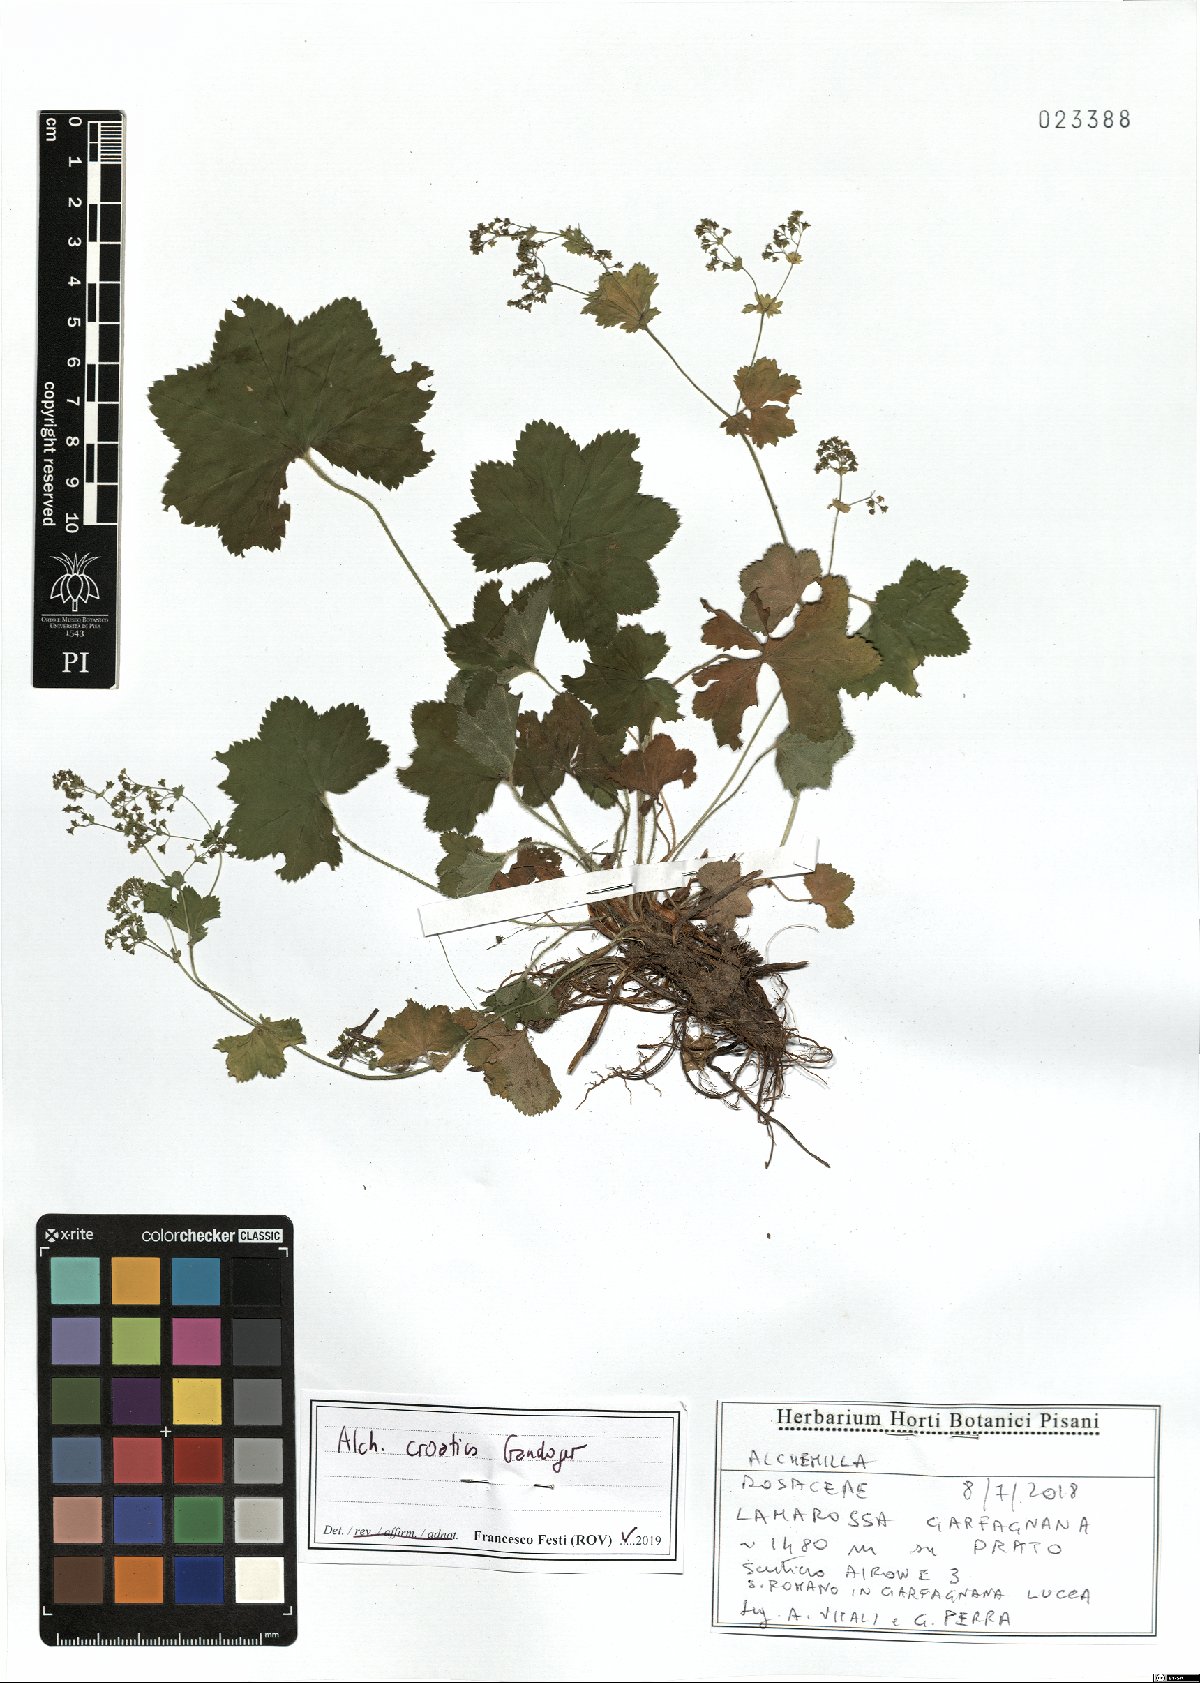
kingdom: Plantae
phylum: Tracheophyta
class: Magnoliopsida
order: Rosales
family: Rosaceae
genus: Alchemilla
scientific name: Alchemilla croatica
